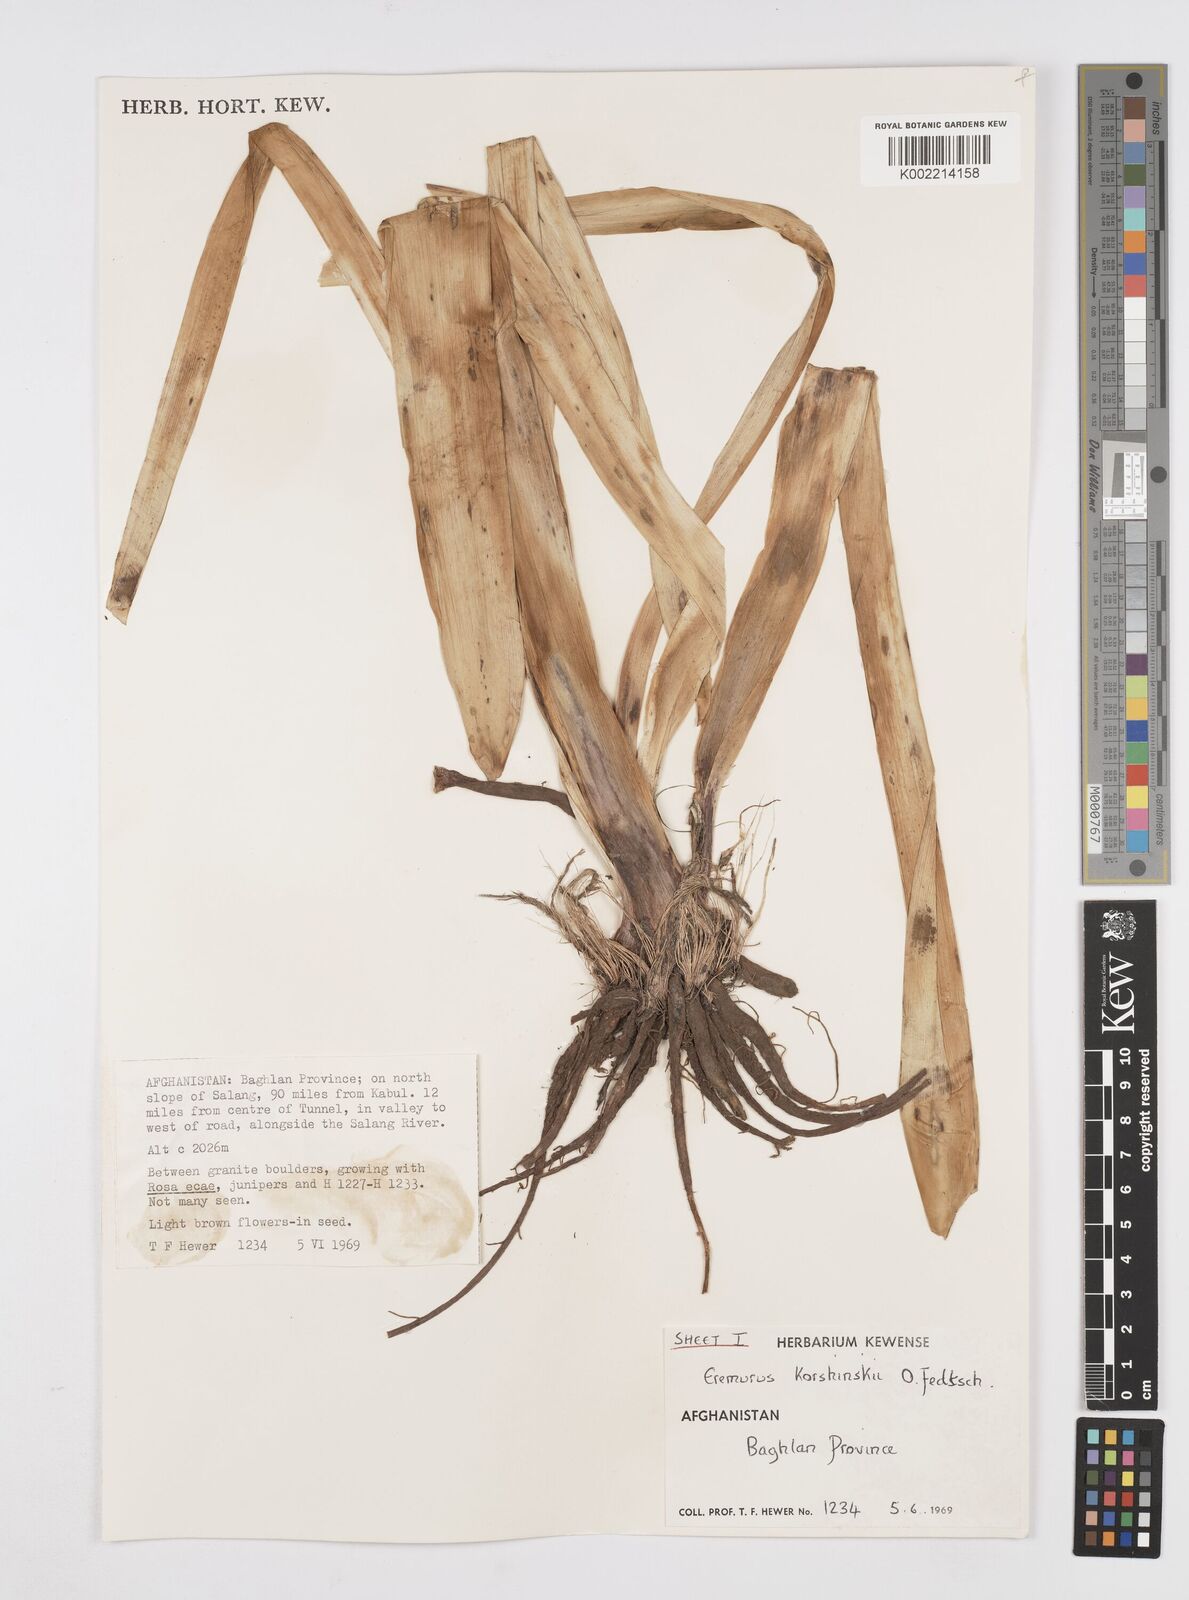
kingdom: Plantae
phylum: Tracheophyta
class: Liliopsida
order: Asparagales
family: Asphodelaceae
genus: Eremurus
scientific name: Eremurus korshinskyi
